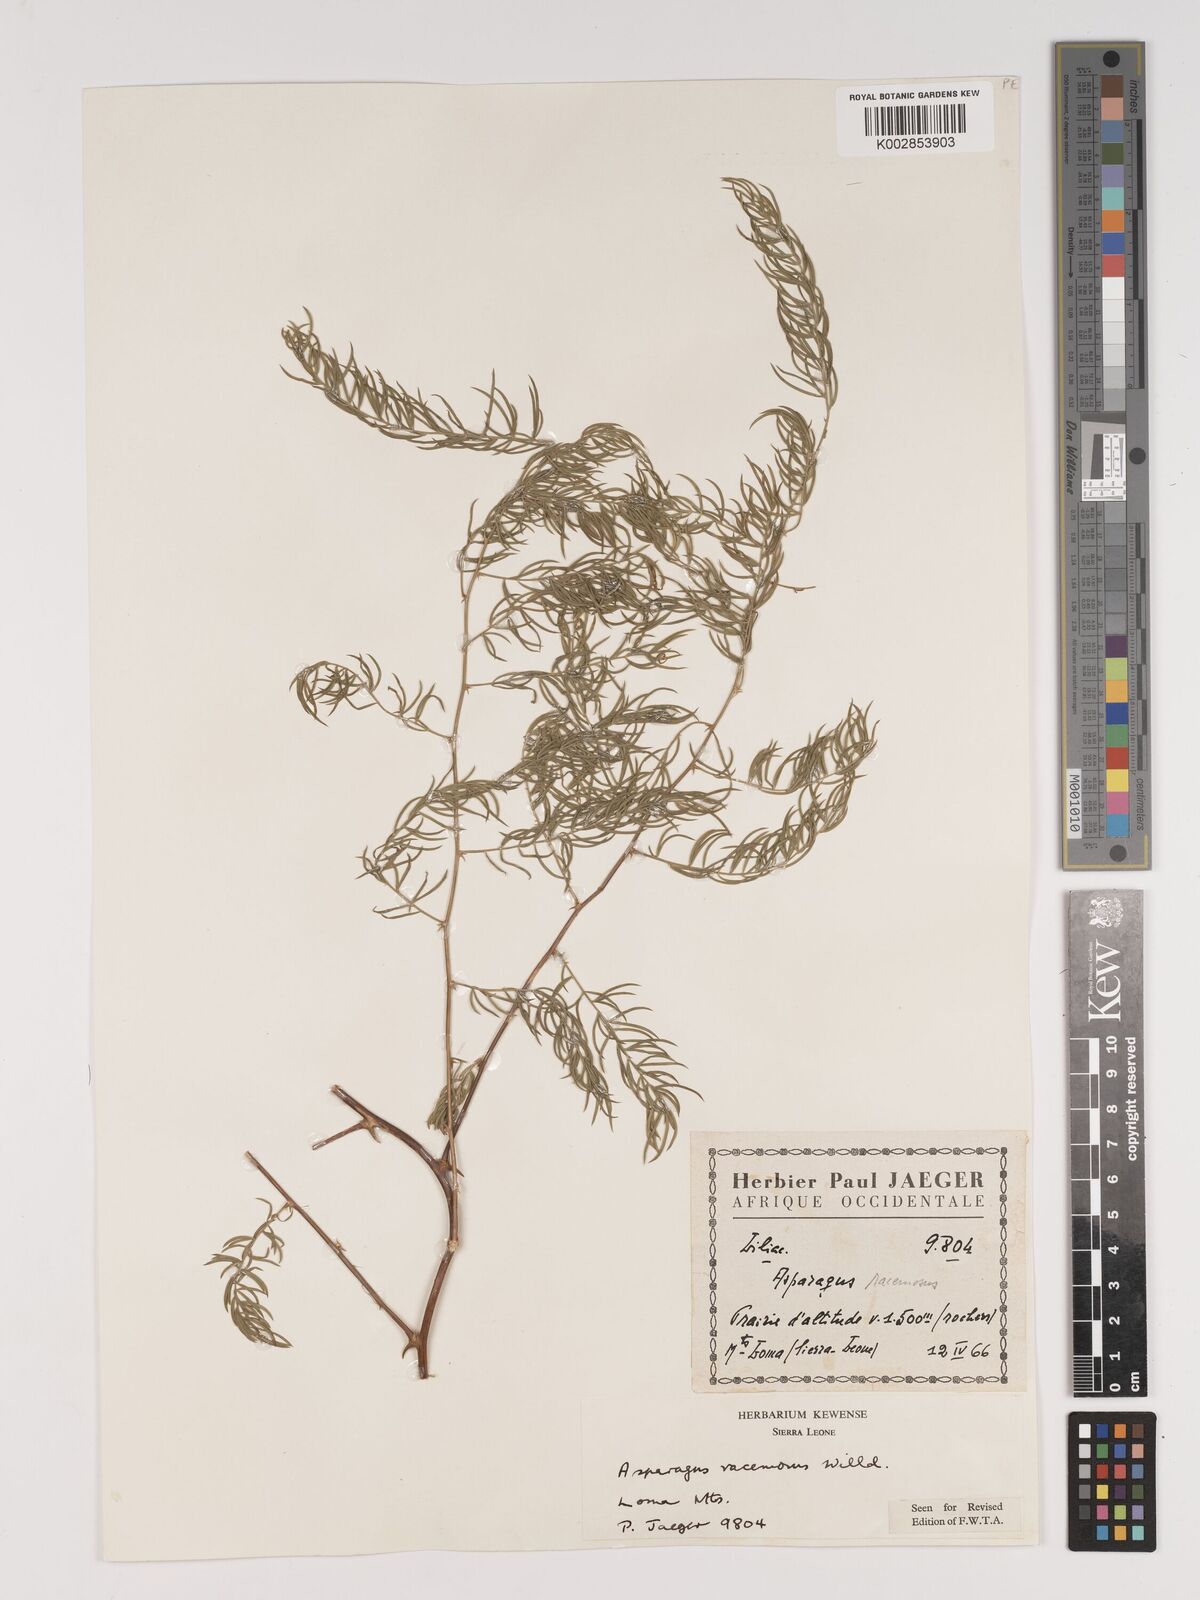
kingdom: Plantae
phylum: Tracheophyta
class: Liliopsida
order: Asparagales
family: Asparagaceae
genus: Asparagus
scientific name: Asparagus racemosus
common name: Asparagus-fern
